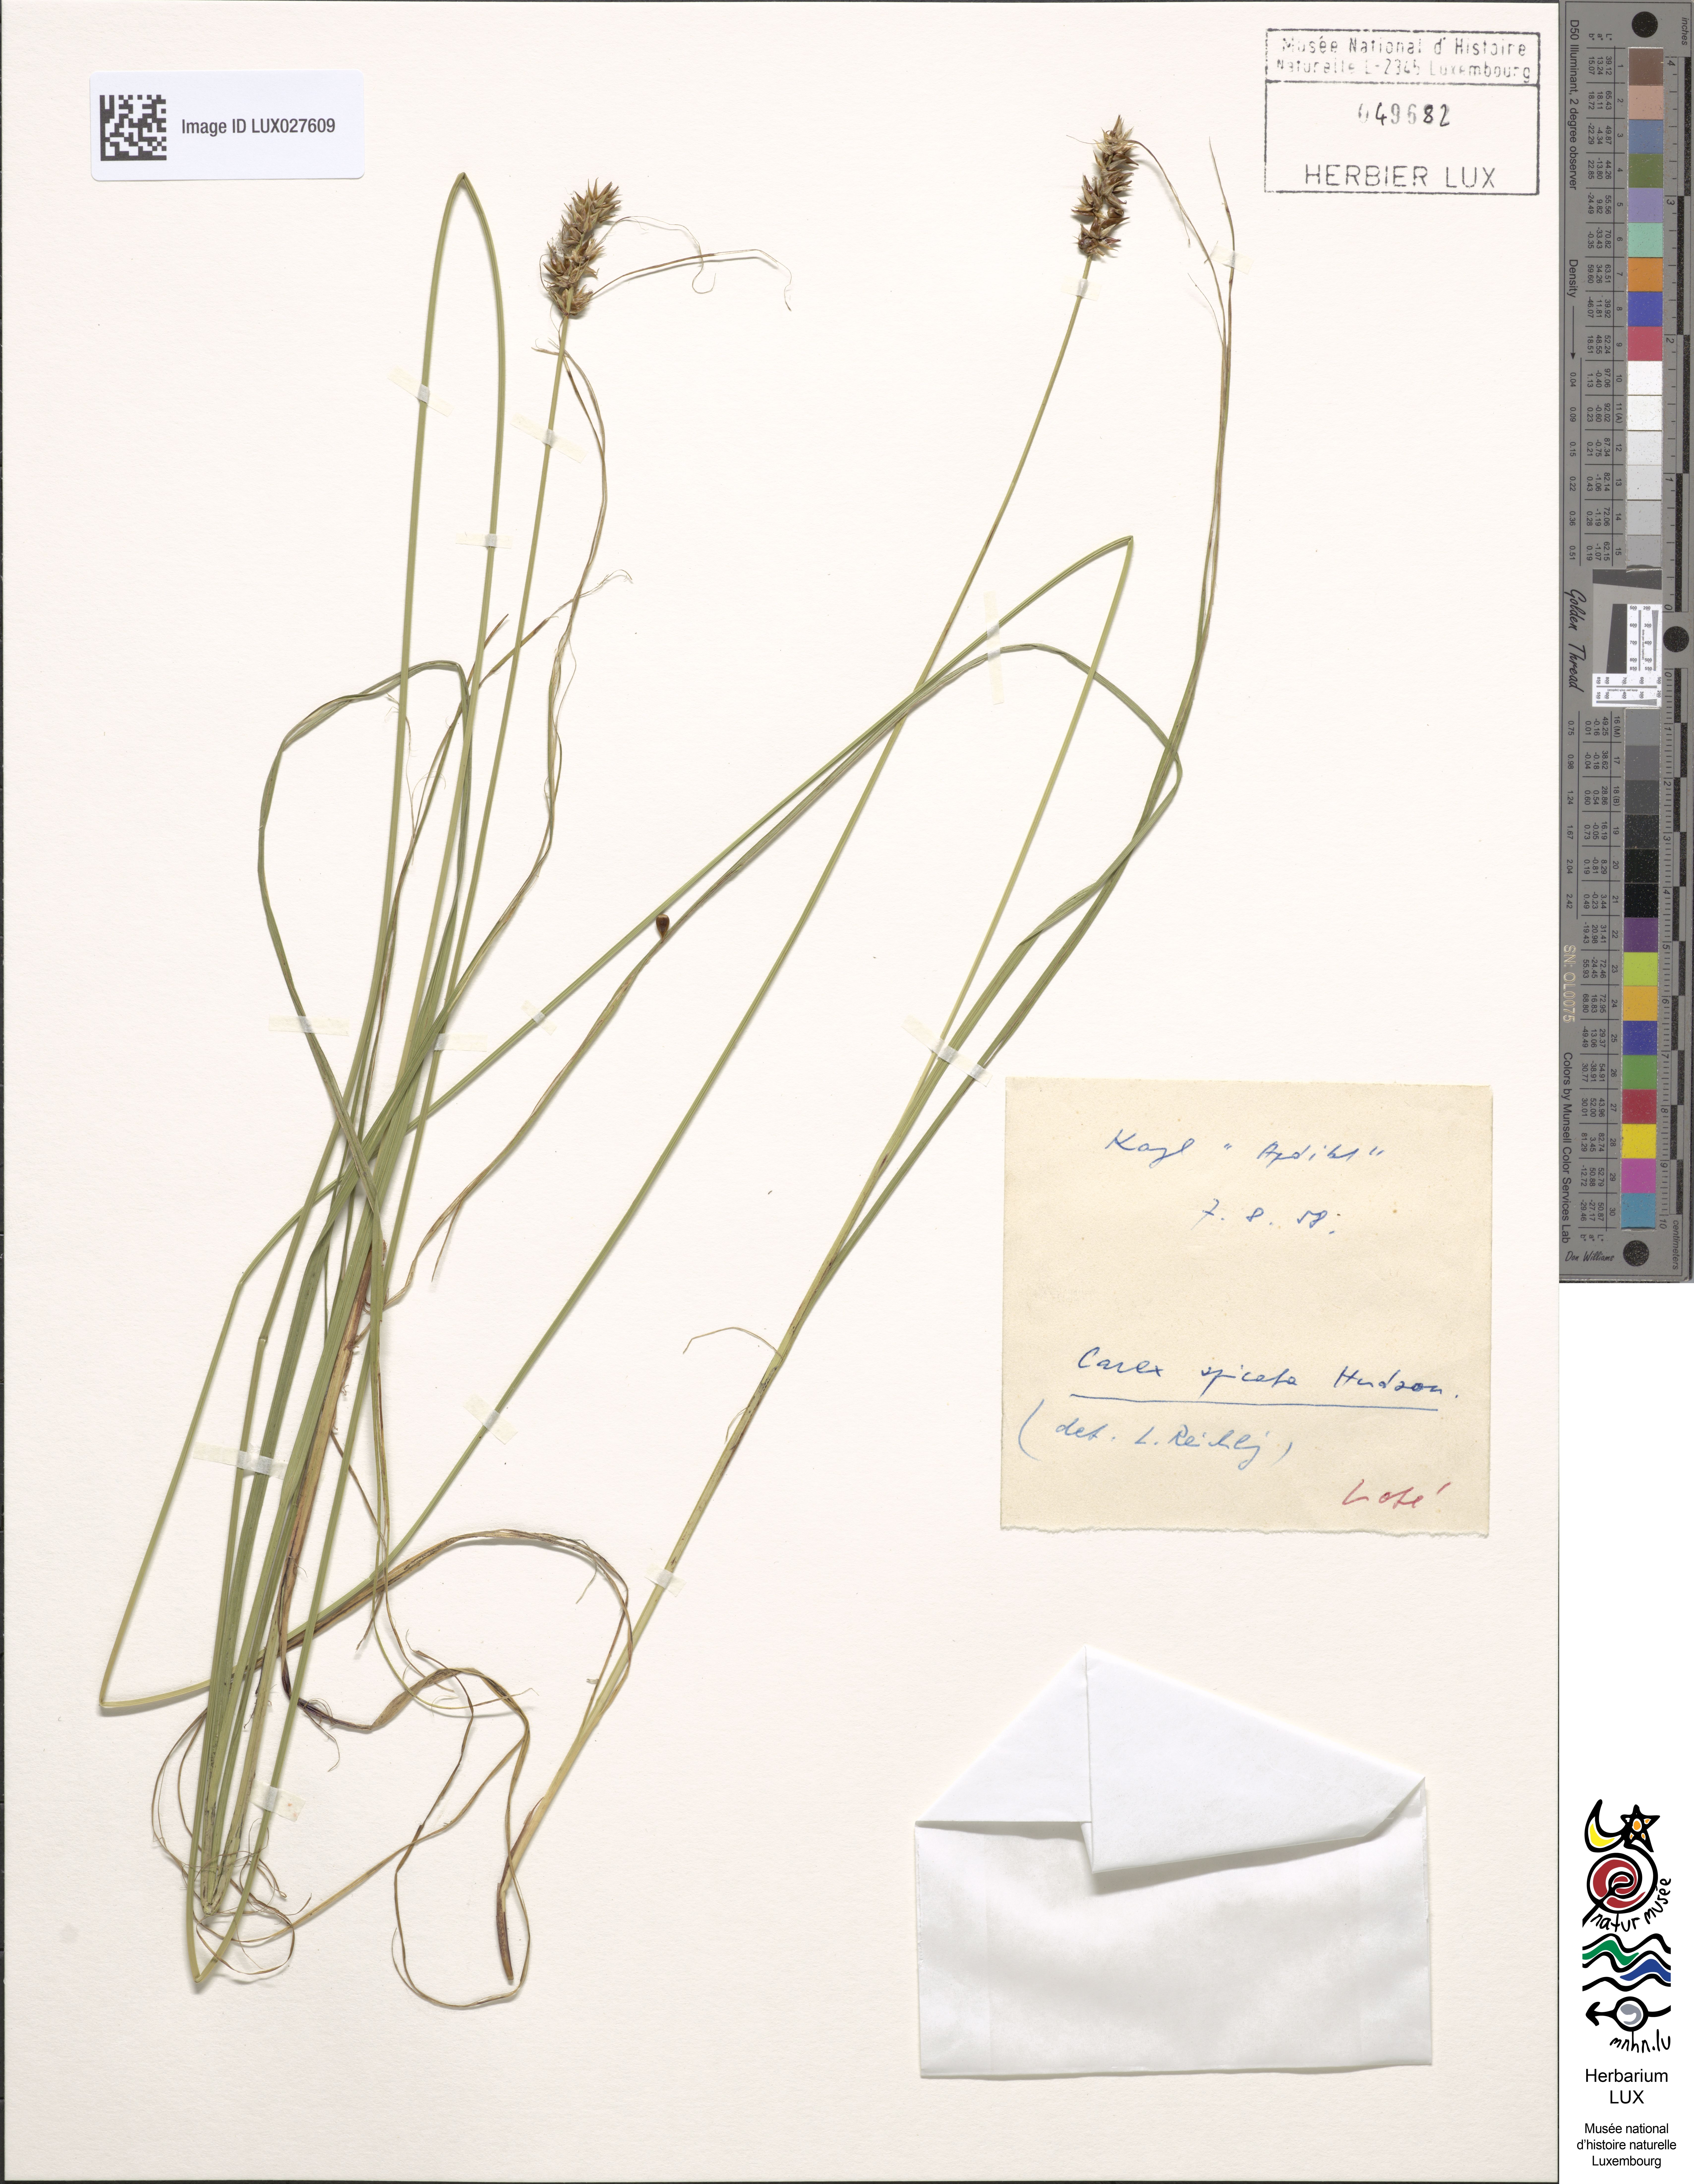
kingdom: Plantae
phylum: Tracheophyta
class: Liliopsida
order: Poales
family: Cyperaceae
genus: Carex
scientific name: Carex spicata
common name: Spiked sedge
